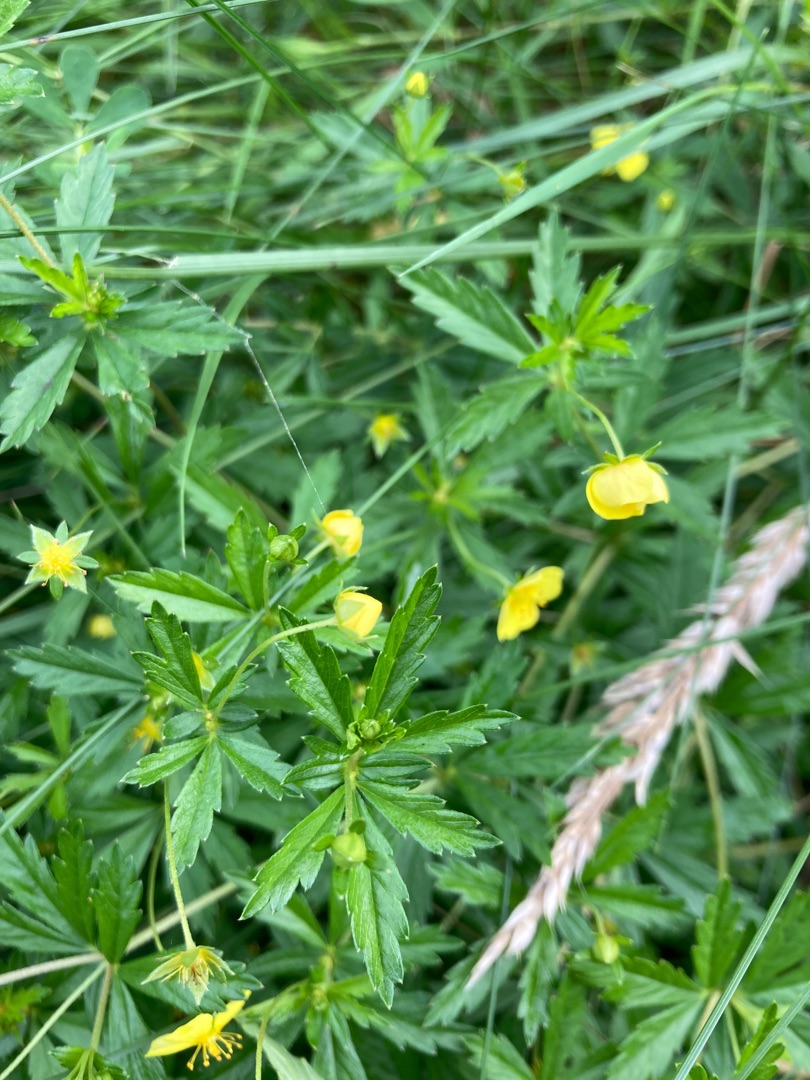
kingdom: Plantae
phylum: Tracheophyta
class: Magnoliopsida
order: Rosales
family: Rosaceae
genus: Potentilla
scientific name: Potentilla erecta
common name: Tormentil
